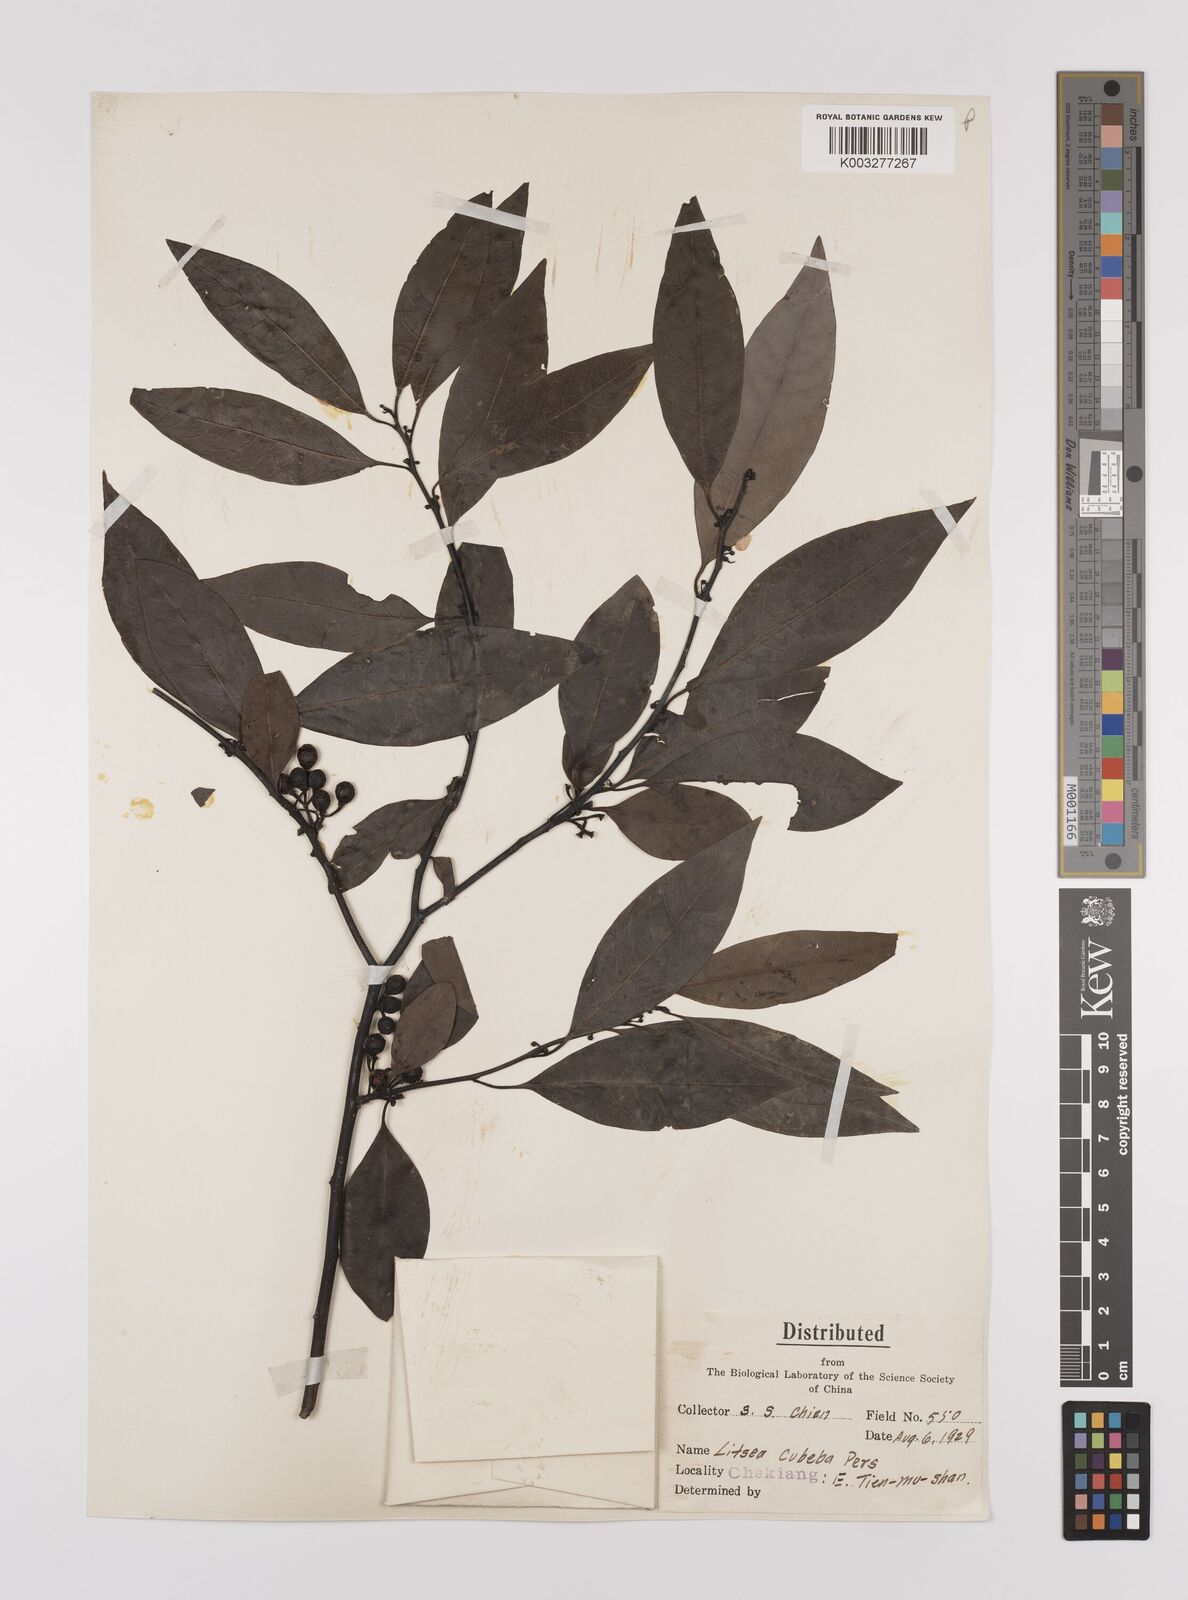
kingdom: Plantae
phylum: Tracheophyta
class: Magnoliopsida
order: Laurales
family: Lauraceae
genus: Litsea
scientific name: Litsea cubeba
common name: Mountain-pepper
